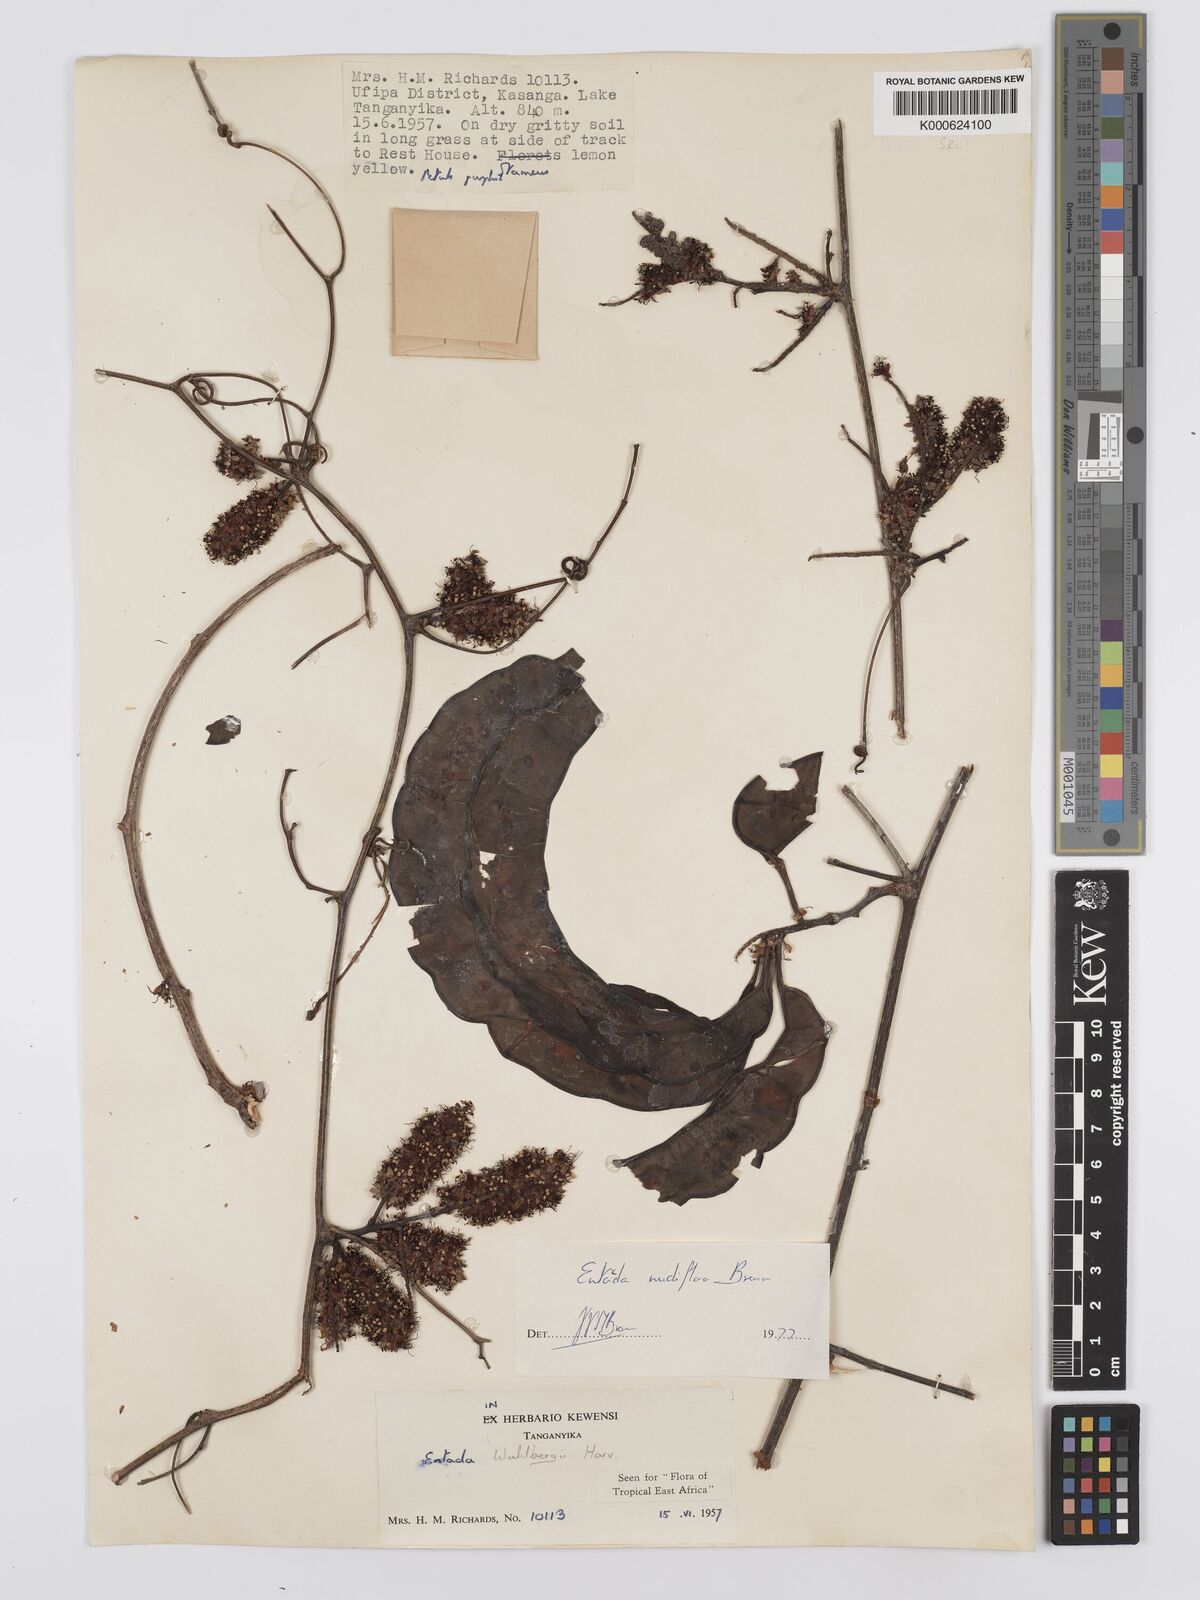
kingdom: Plantae
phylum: Tracheophyta
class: Magnoliopsida
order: Fabales
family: Fabaceae
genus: Entada
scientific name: Entada nudiflora
